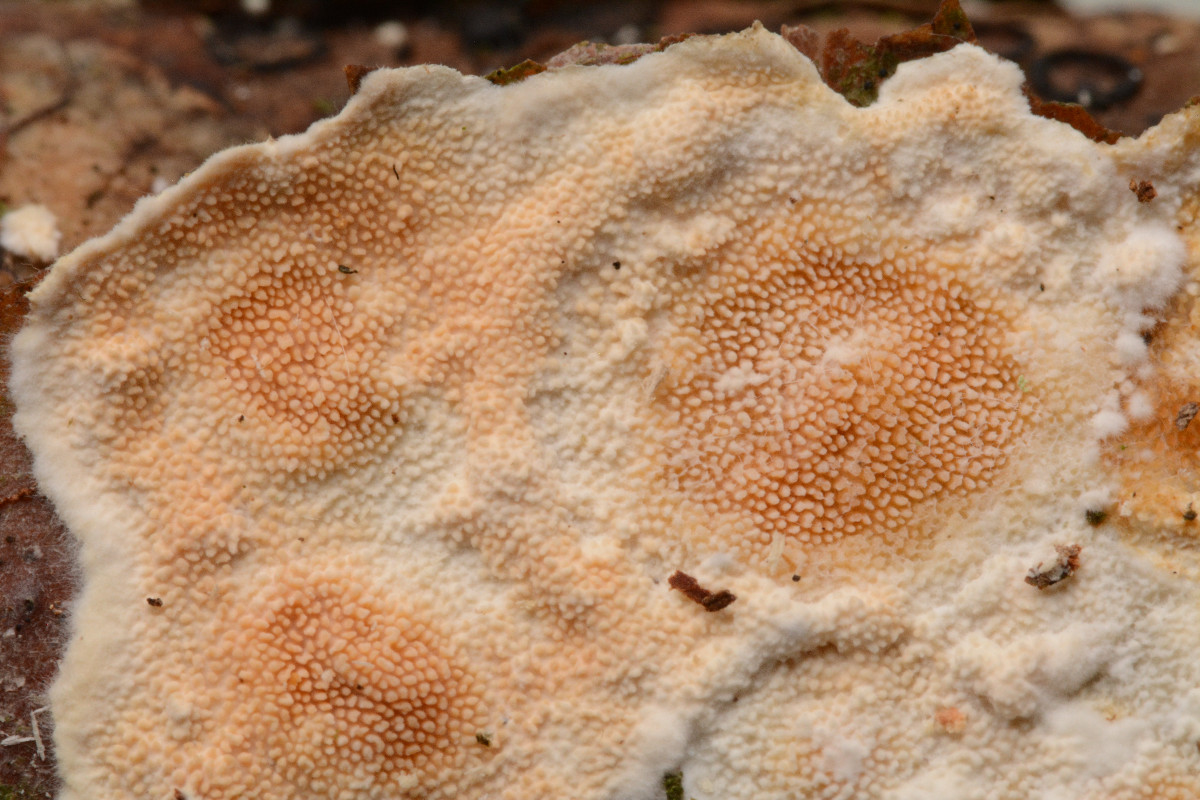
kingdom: Fungi
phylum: Basidiomycota
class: Agaricomycetes
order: Polyporales
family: Steccherinaceae
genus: Steccherinum
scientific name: Steccherinum ochraceum
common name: almindelig skønpig
